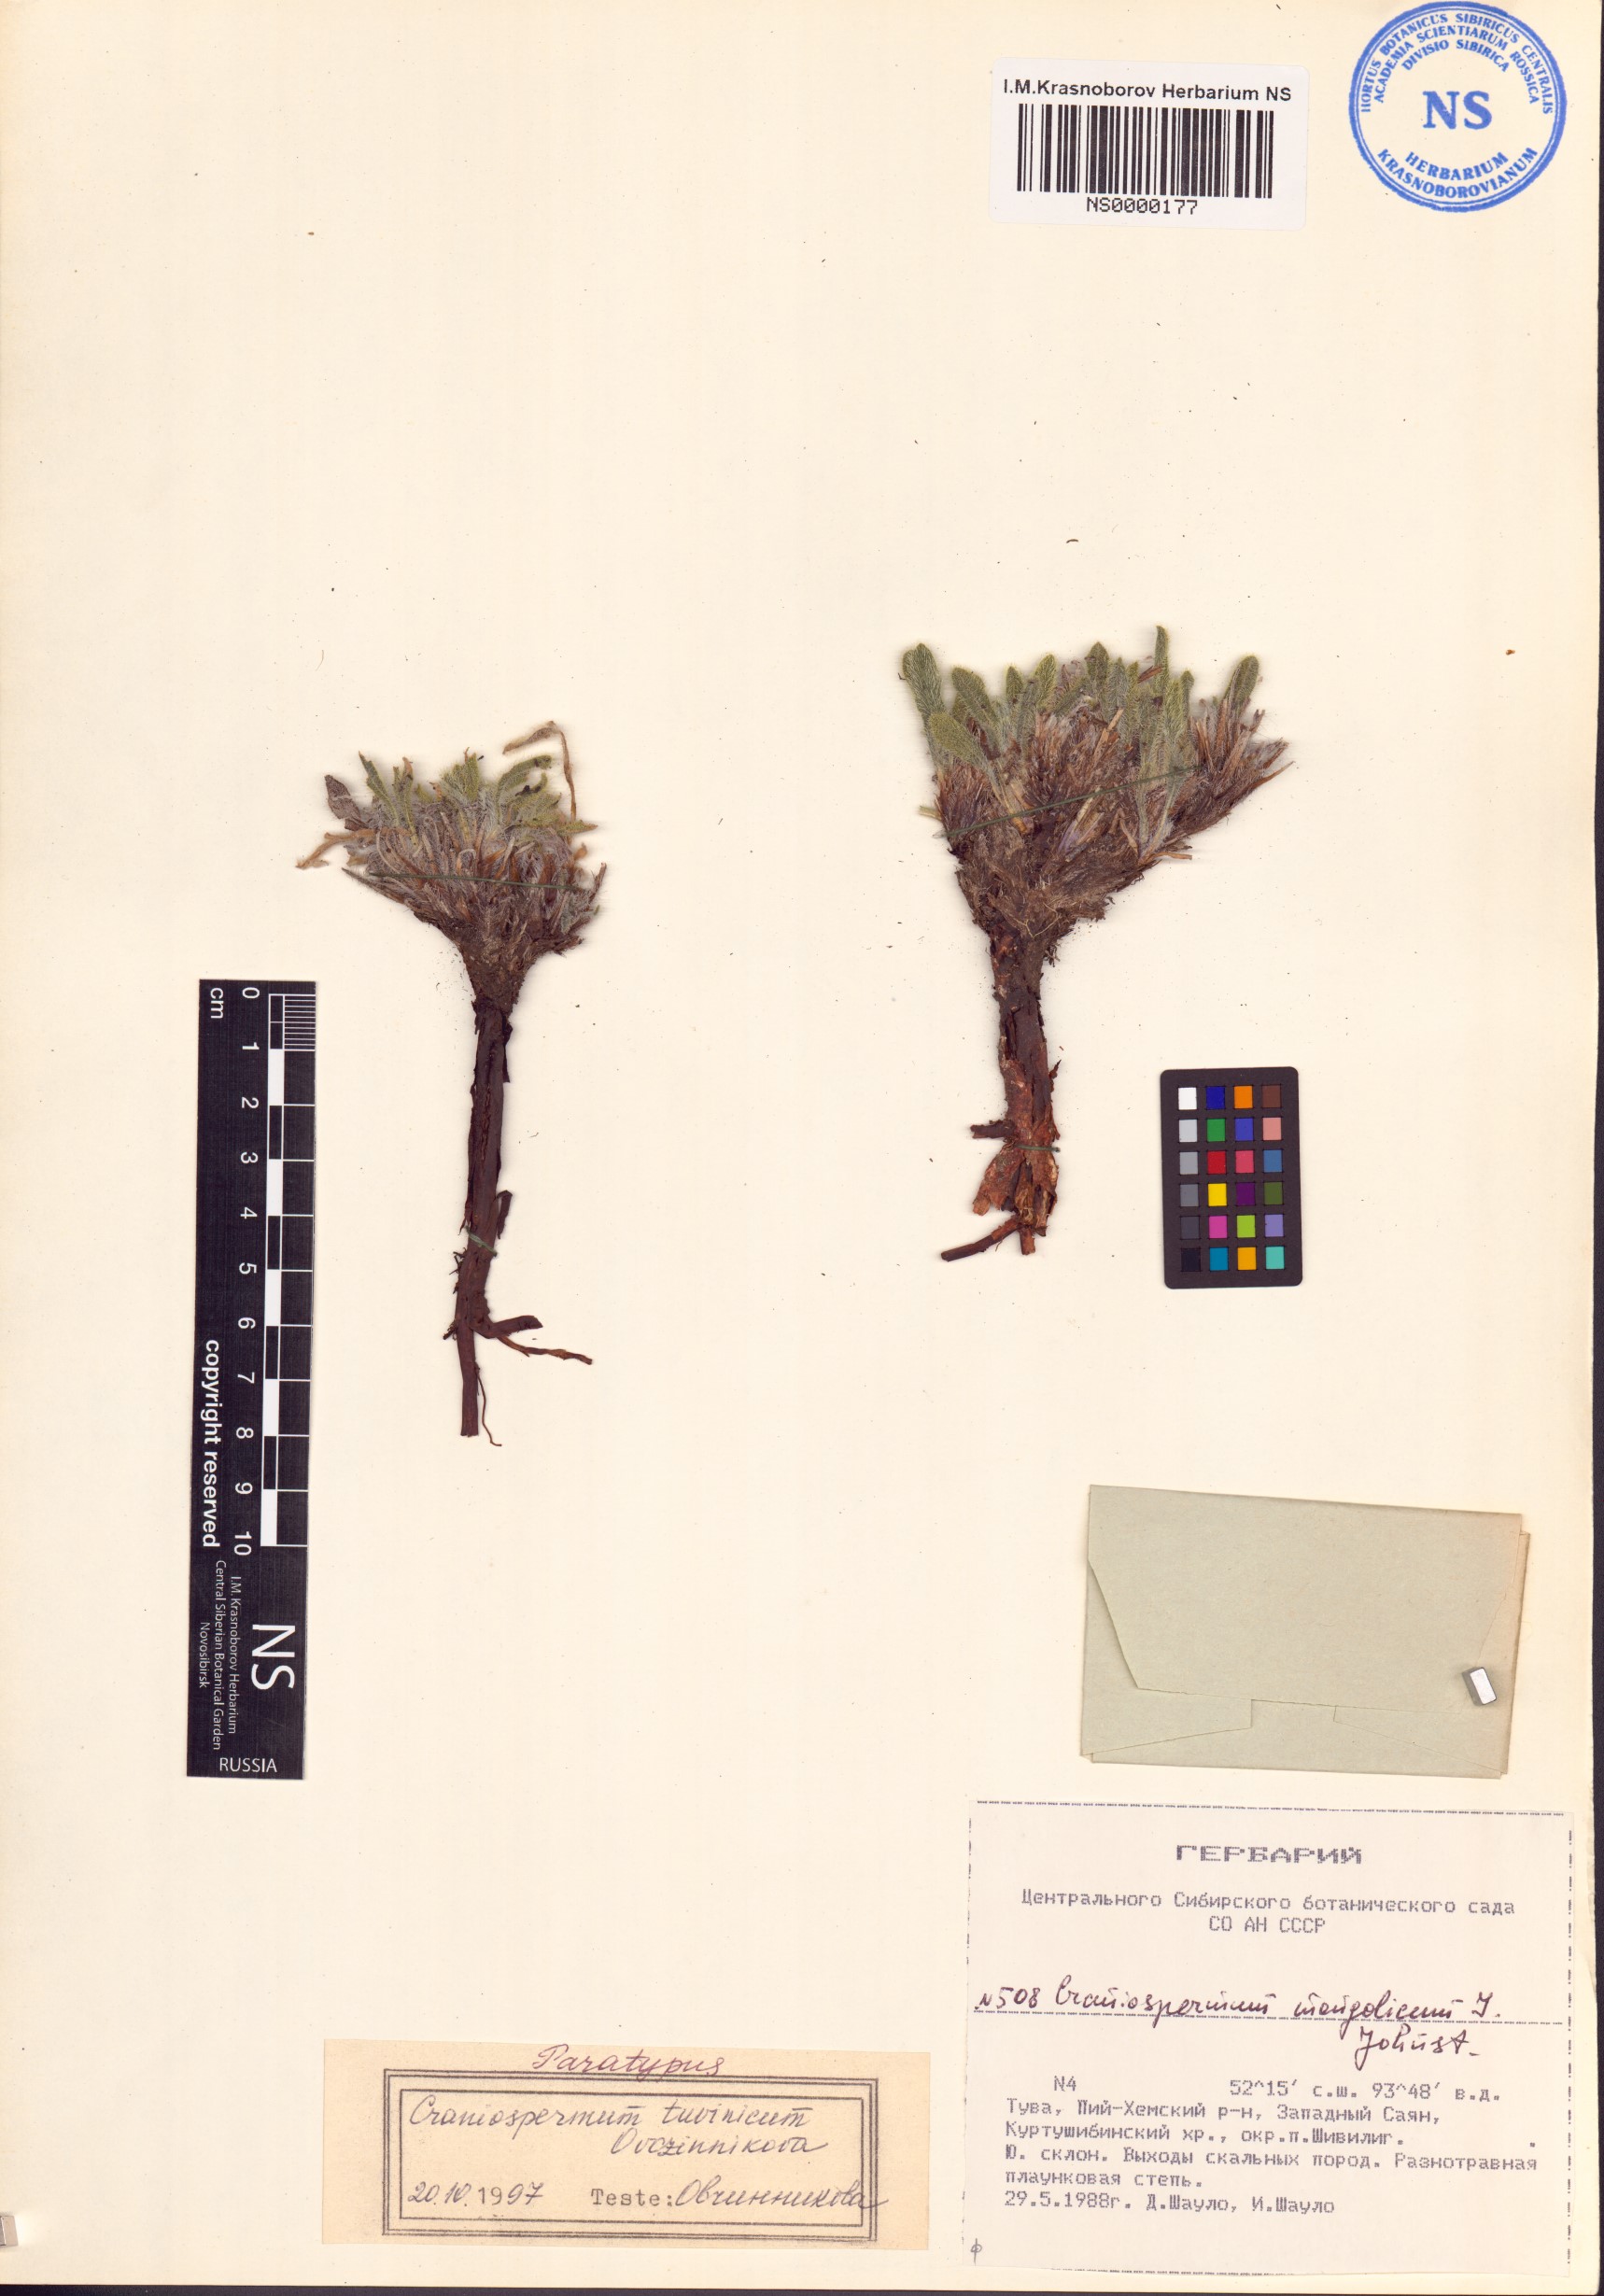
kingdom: Plantae
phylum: Tracheophyta
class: Magnoliopsida
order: Boraginales
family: Boraginaceae
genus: Craniospermum
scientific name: Craniospermum tuvinicum
